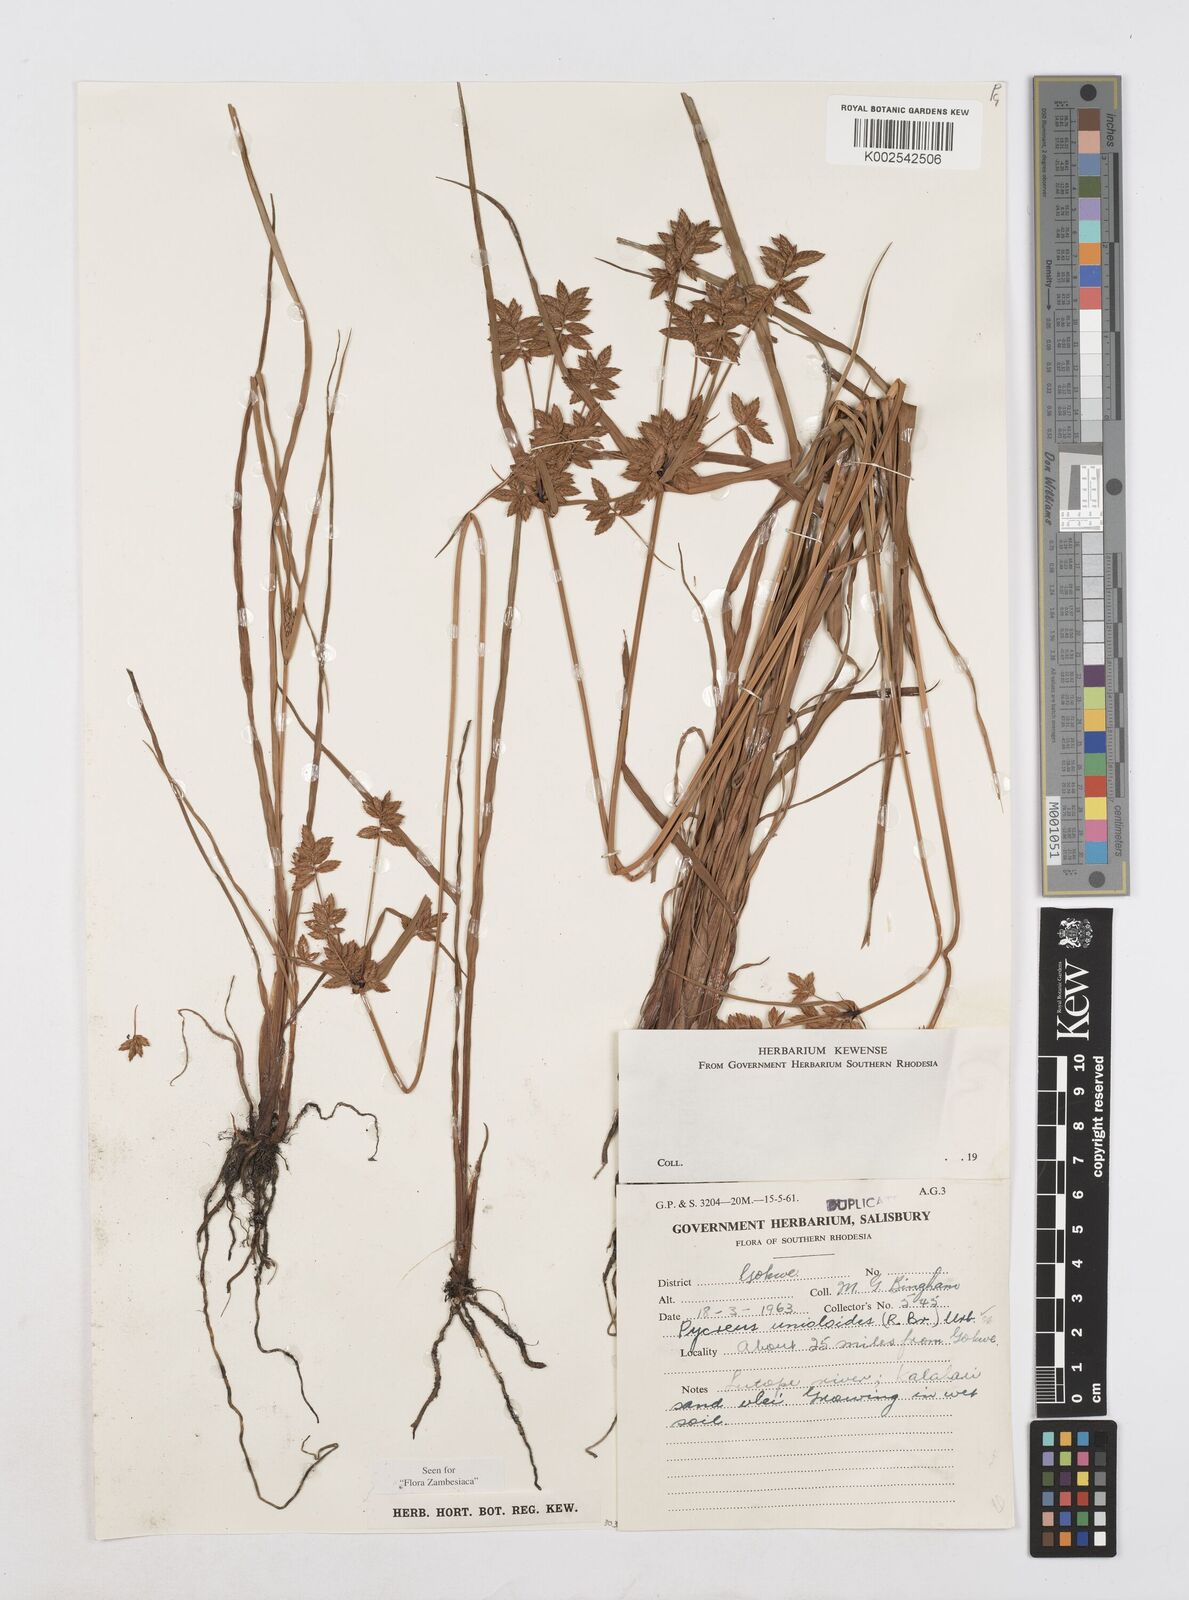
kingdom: Plantae
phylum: Tracheophyta
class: Liliopsida
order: Poales
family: Cyperaceae
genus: Cyperus
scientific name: Cyperus unioloides
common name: Uniola flatsedge
